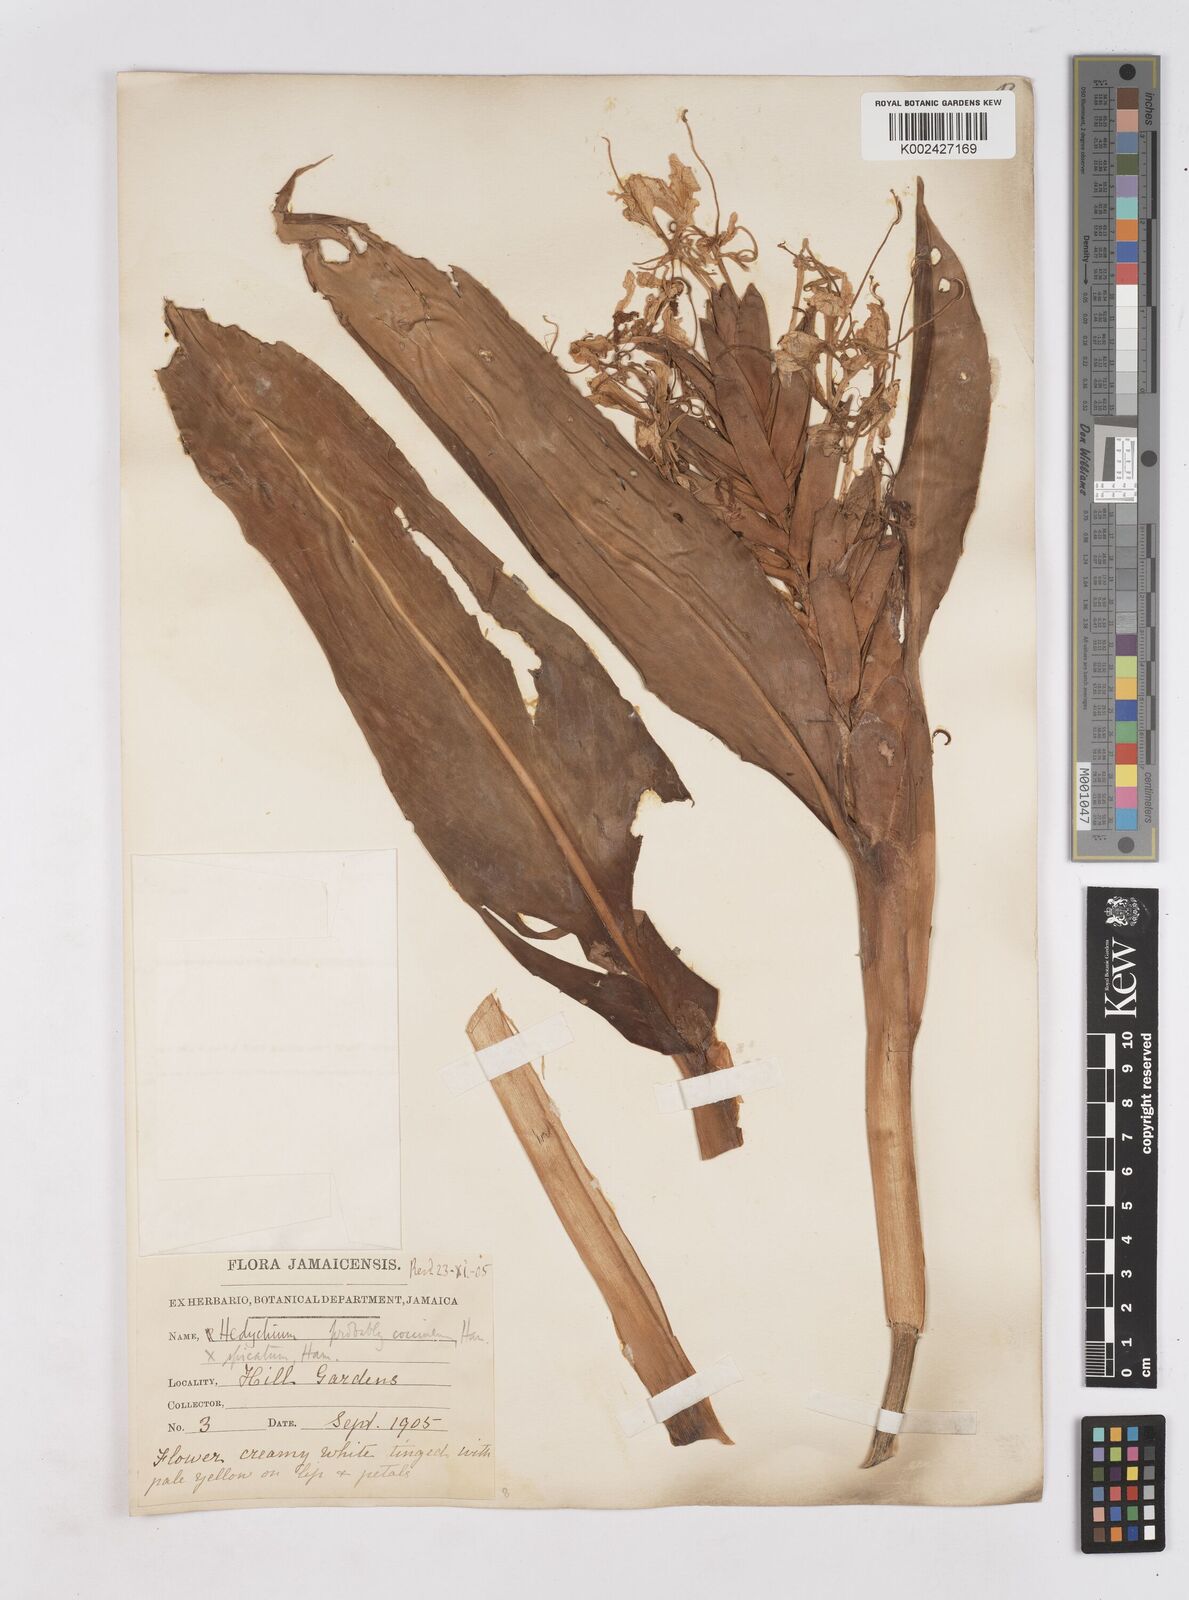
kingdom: Plantae
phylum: Tracheophyta
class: Liliopsida
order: Zingiberales
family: Zingiberaceae
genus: Hedychium
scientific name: Hedychium coccineum
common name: Red ginger-lily
